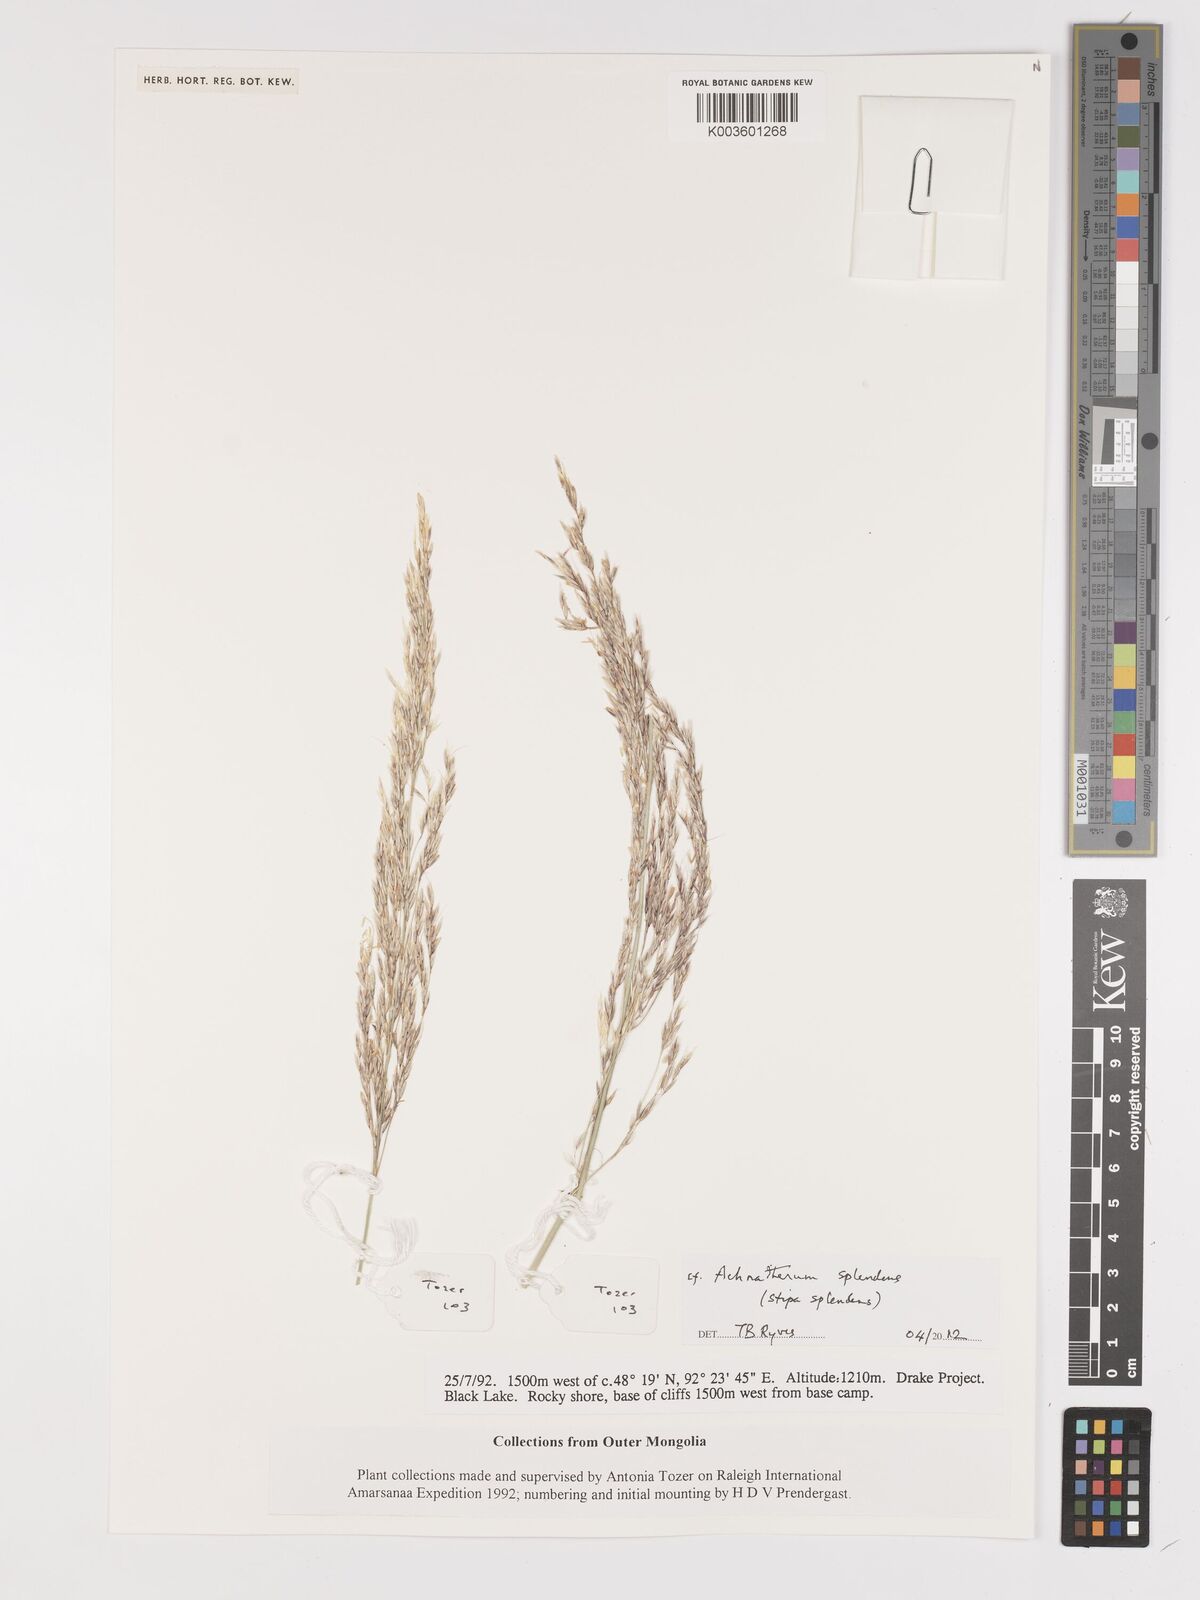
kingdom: Plantae
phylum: Tracheophyta
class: Liliopsida
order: Poales
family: Poaceae
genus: Neotrinia
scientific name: Neotrinia splendens
